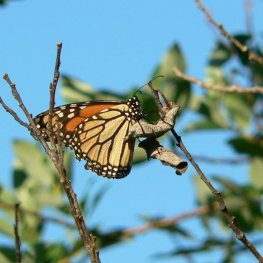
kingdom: Animalia
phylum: Arthropoda
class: Insecta
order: Lepidoptera
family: Nymphalidae
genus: Danaus
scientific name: Danaus plexippus
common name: Monarch
